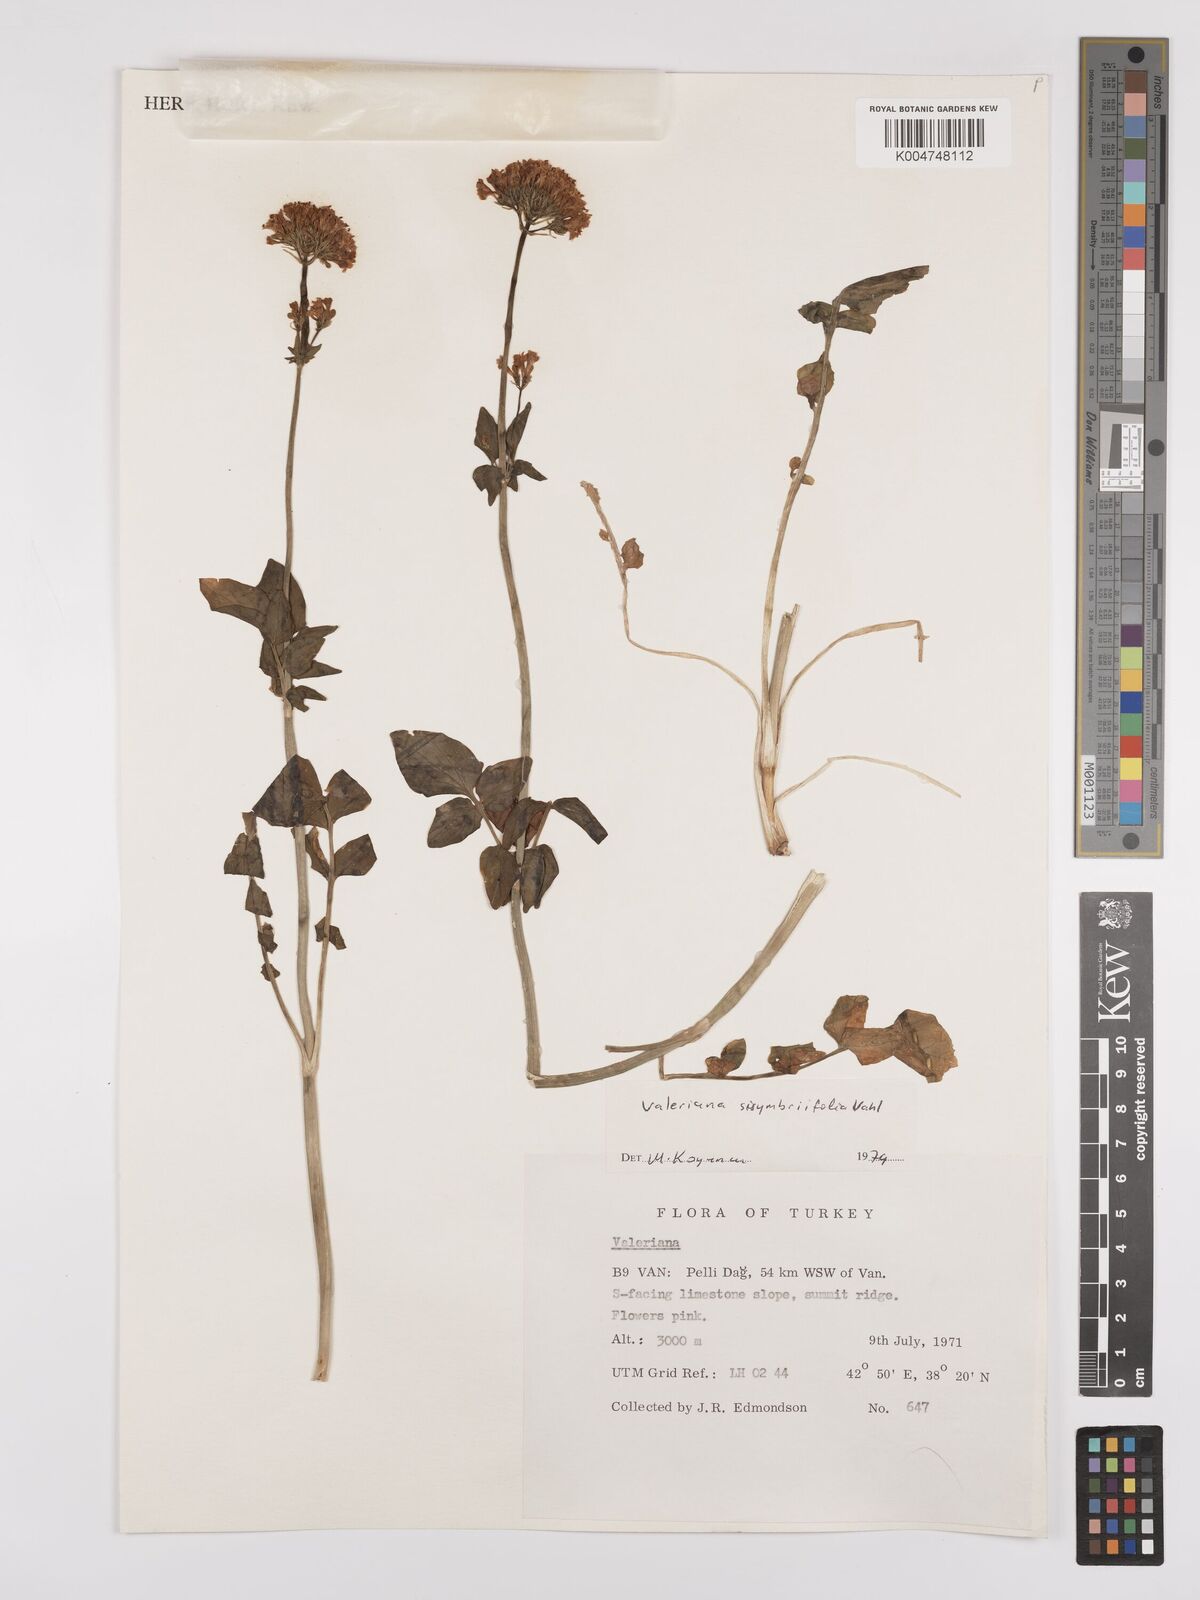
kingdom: Plantae
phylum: Tracheophyta
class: Magnoliopsida
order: Dipsacales
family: Caprifoliaceae
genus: Valeriana
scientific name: Valeriana
